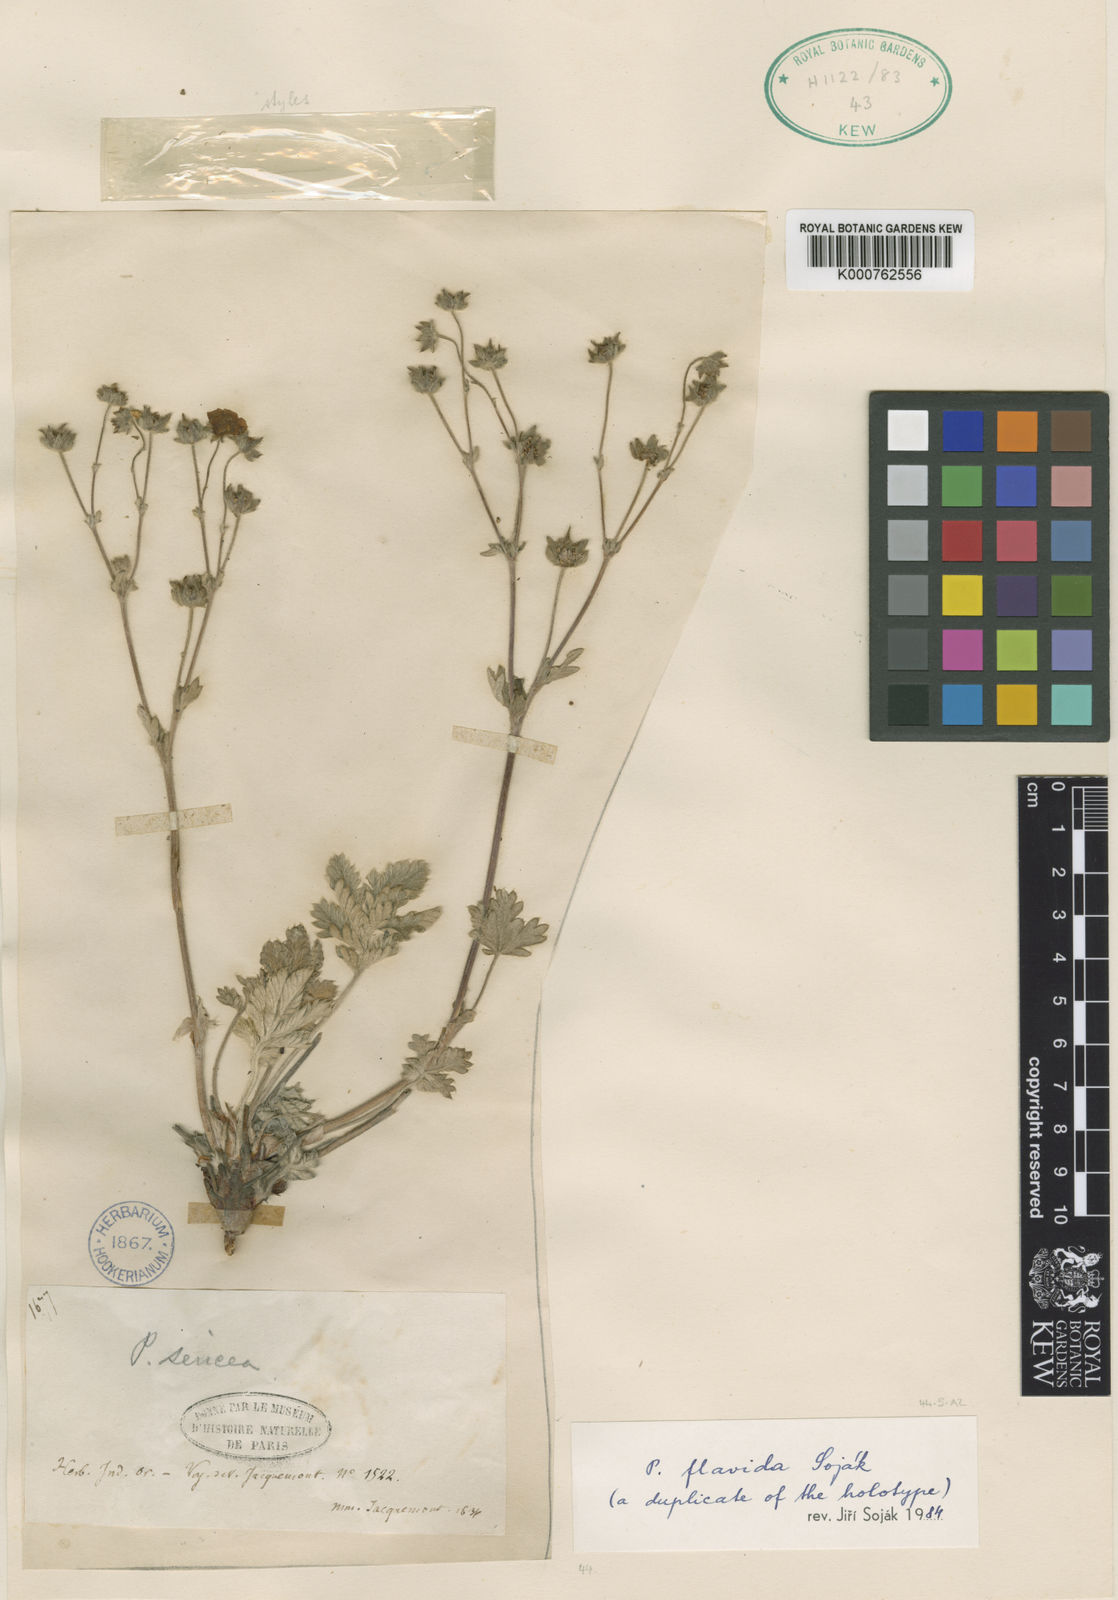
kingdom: Plantae
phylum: Tracheophyta
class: Magnoliopsida
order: Rosales
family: Rosaceae
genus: Potentilla
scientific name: Potentilla
